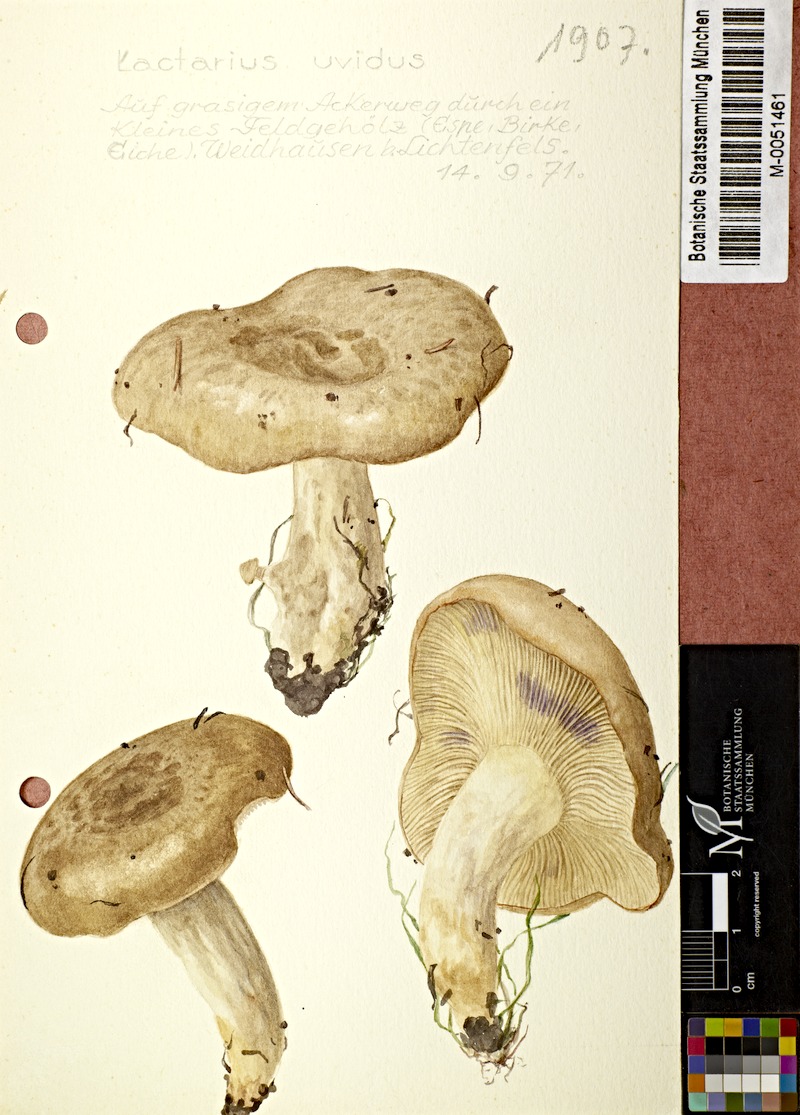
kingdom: Fungi
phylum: Basidiomycota
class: Agaricomycetes
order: Russulales
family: Russulaceae
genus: Lactarius
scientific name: Lactarius uvidus
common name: Shiner milkcap
